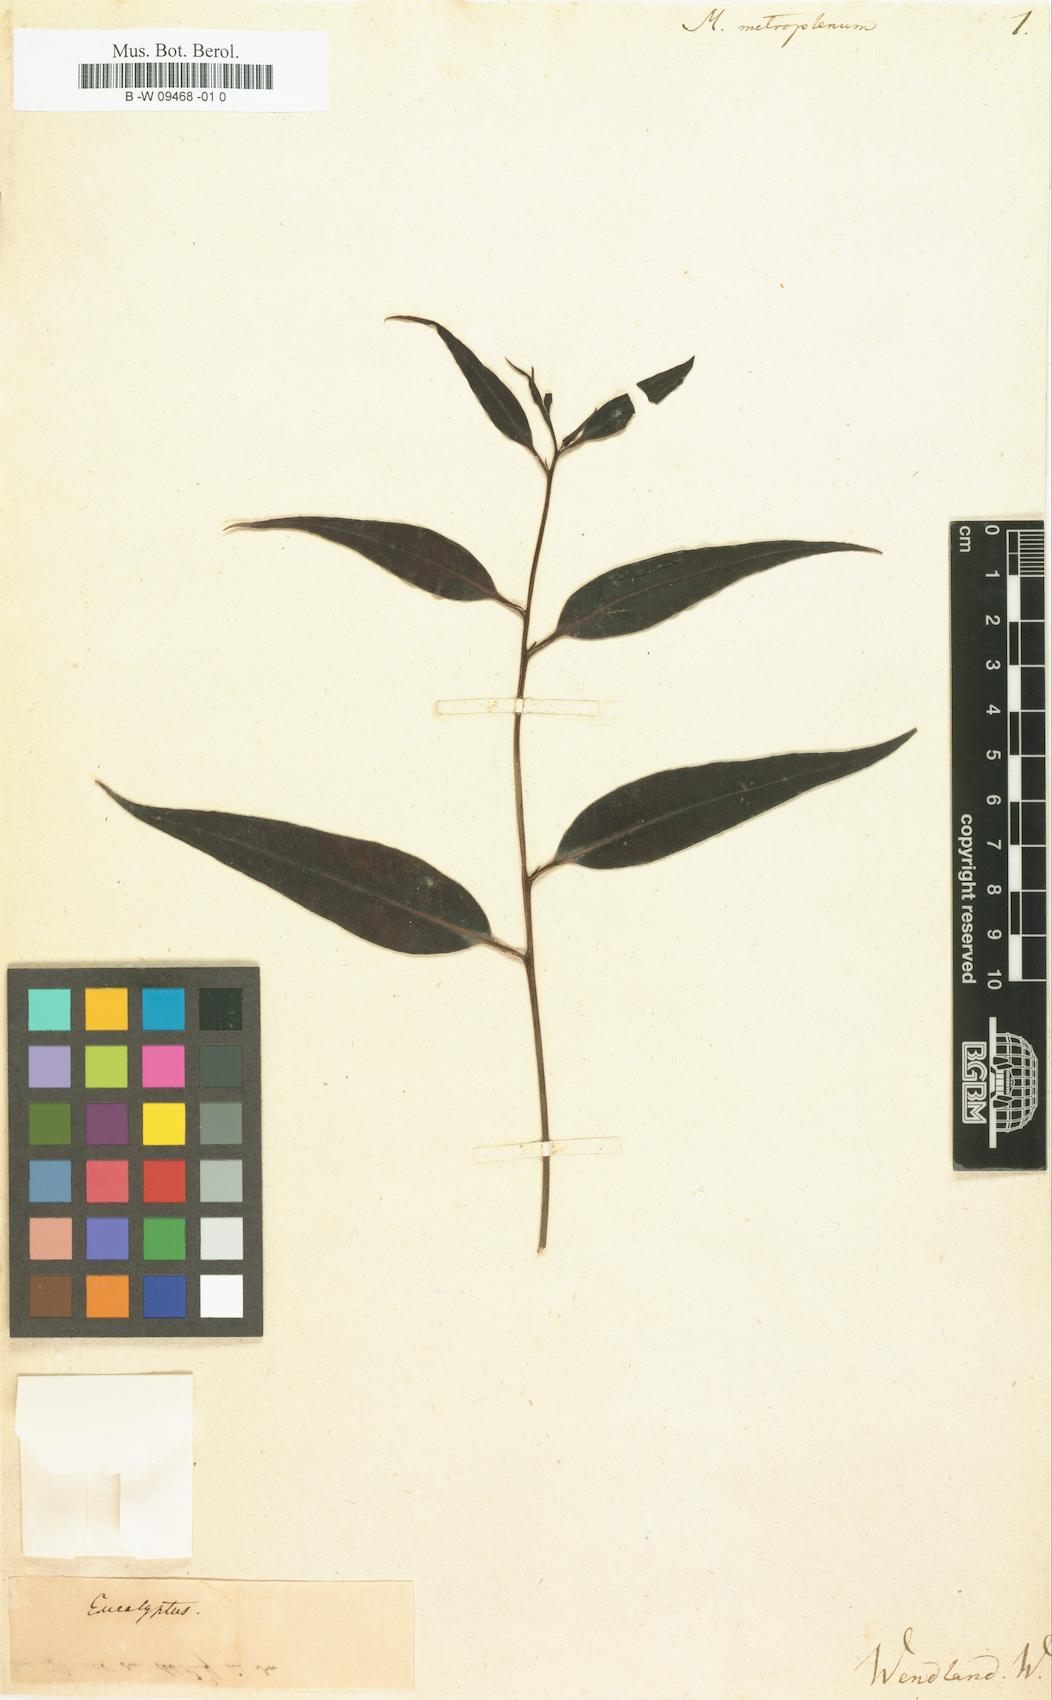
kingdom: Plantae
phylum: Tracheophyta
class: Magnoliopsida
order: Myrtales
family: Myrtaceae
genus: Metrosideros
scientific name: Metrosideros
